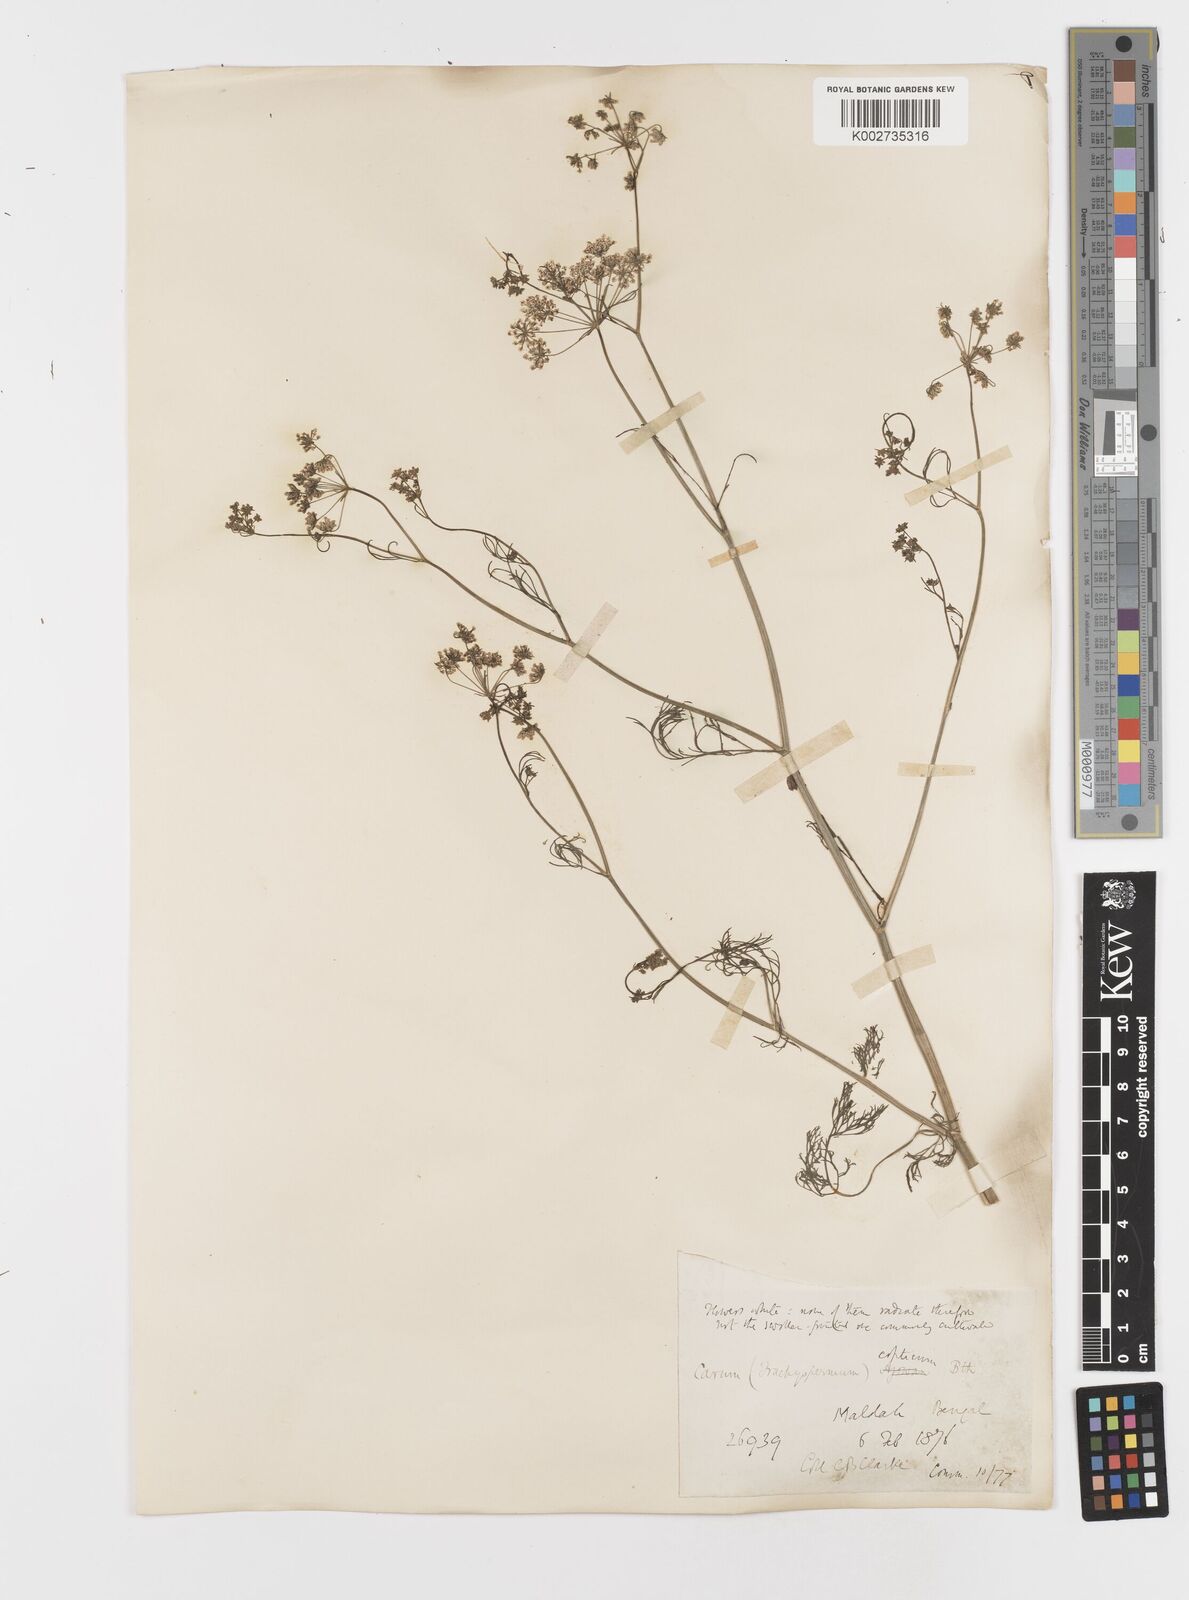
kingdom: Plantae
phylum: Tracheophyta
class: Magnoliopsida
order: Apiales
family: Apiaceae
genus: Trachyspermum
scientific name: Trachyspermum ammi
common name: Ajowan
